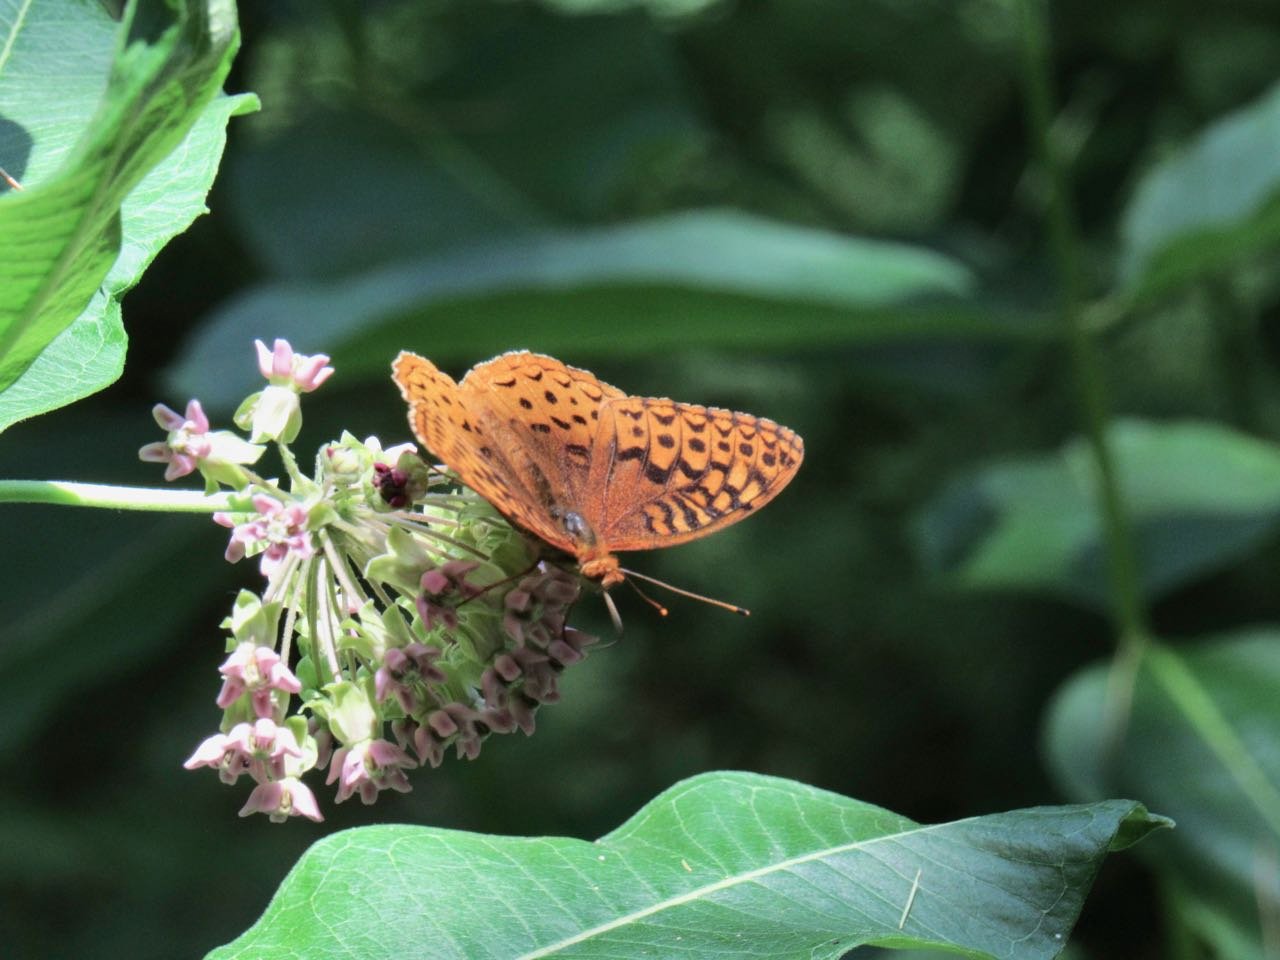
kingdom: Animalia
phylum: Arthropoda
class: Insecta
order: Lepidoptera
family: Nymphalidae
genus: Speyeria
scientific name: Speyeria cybele
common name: Great Spangled Fritillary
